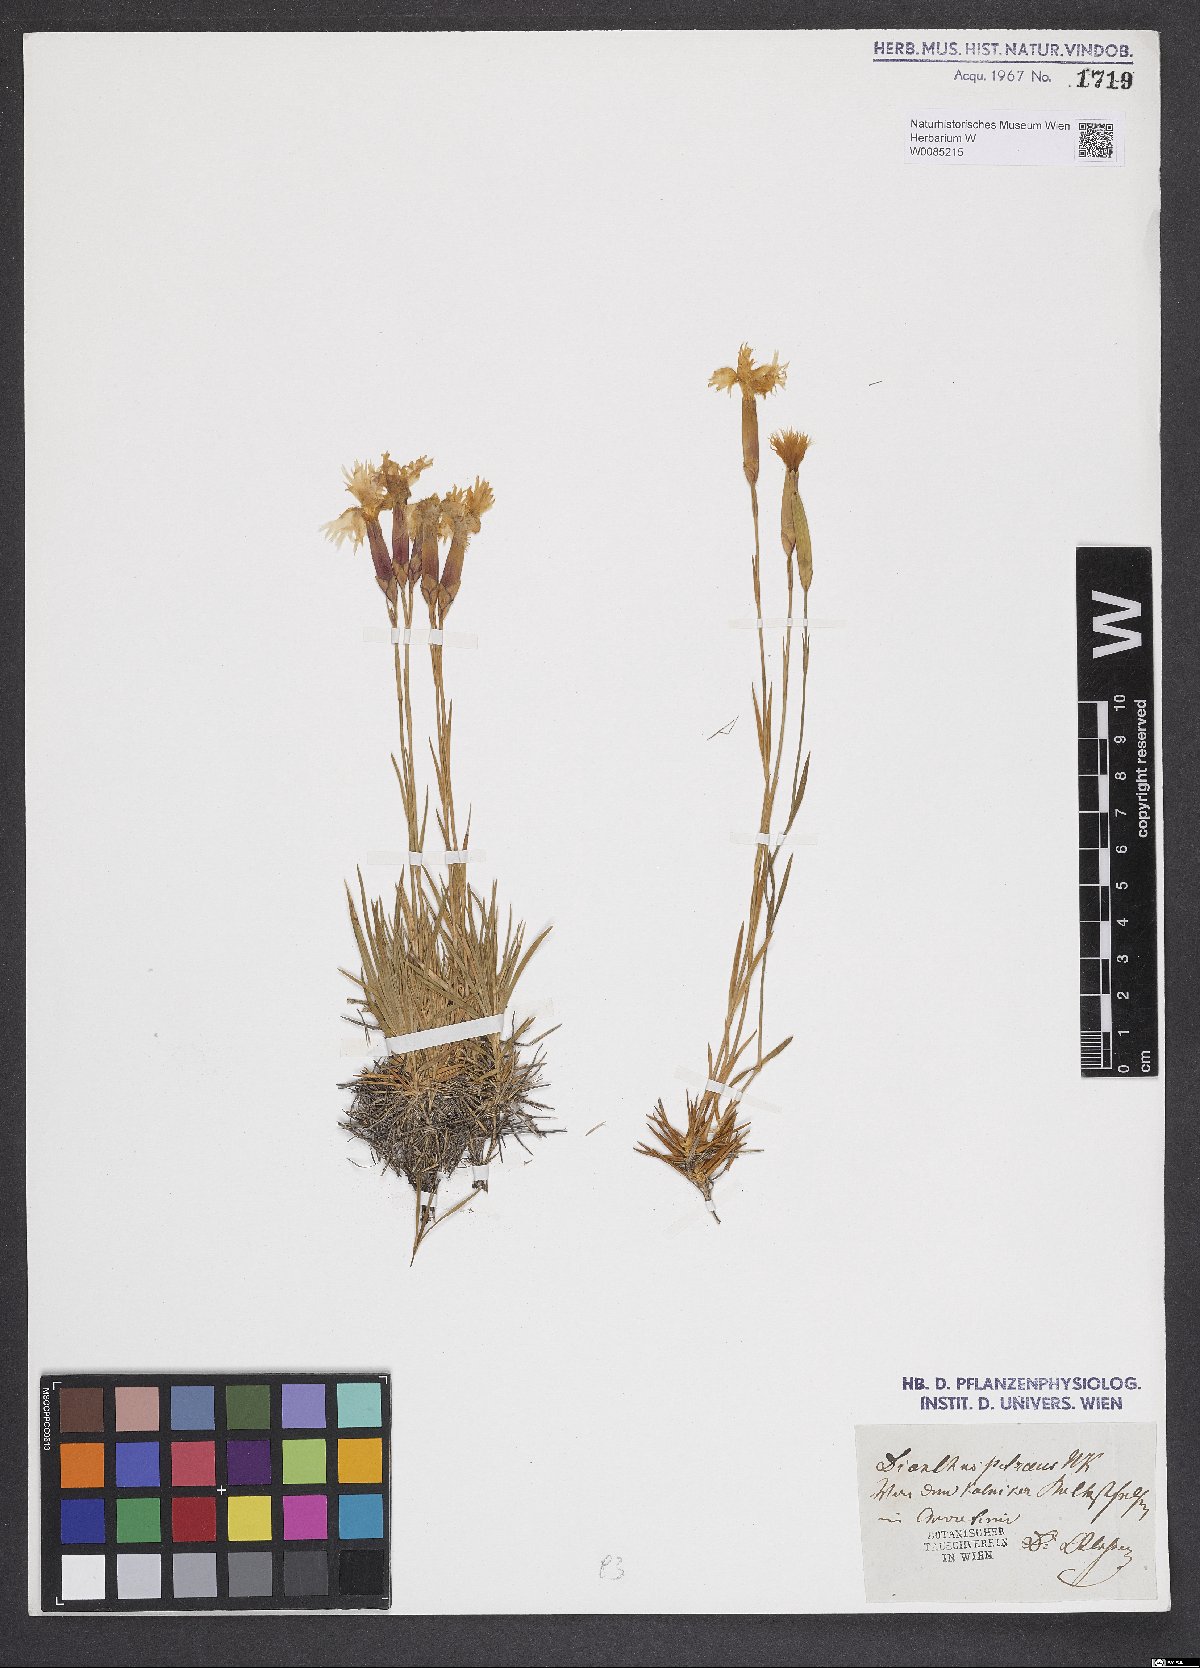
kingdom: Plantae
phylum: Tracheophyta
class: Magnoliopsida
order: Caryophyllales
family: Caryophyllaceae
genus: Dianthus
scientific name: Dianthus petraeus
